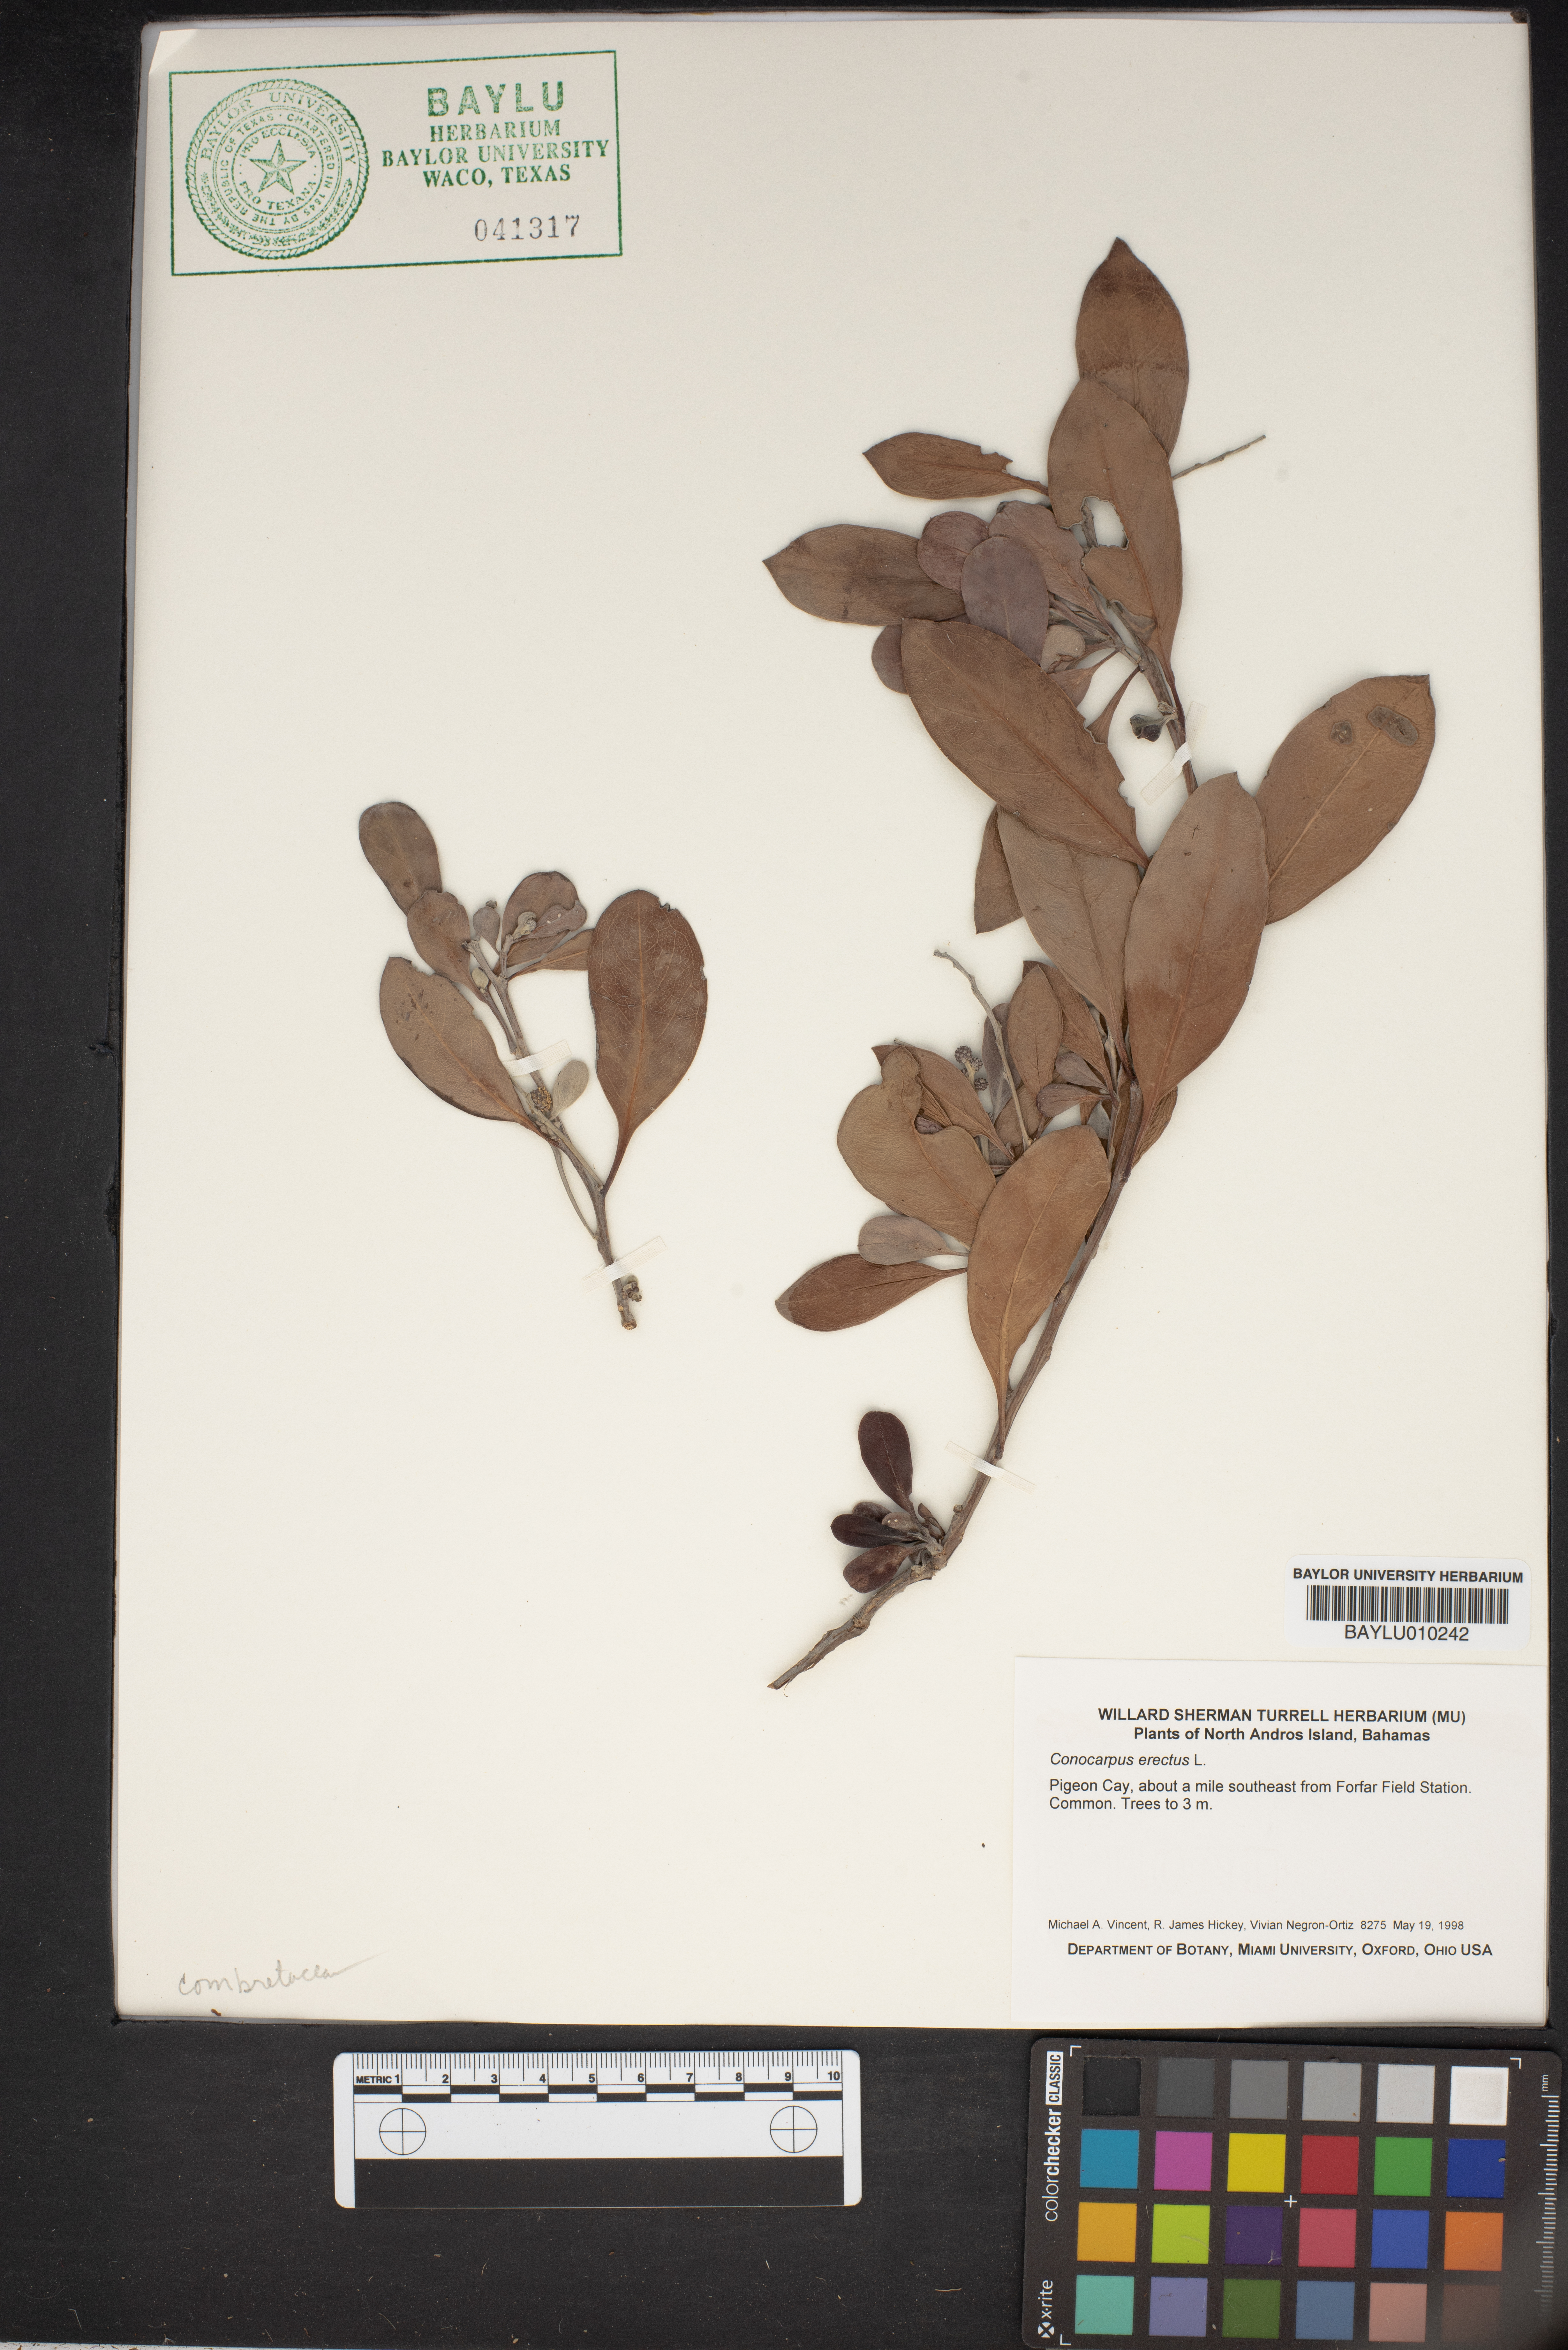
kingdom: Plantae
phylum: Tracheophyta
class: Magnoliopsida
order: Myrtales
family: Combretaceae
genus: Conocarpus
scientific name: Conocarpus erectus
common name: Button mangrove
